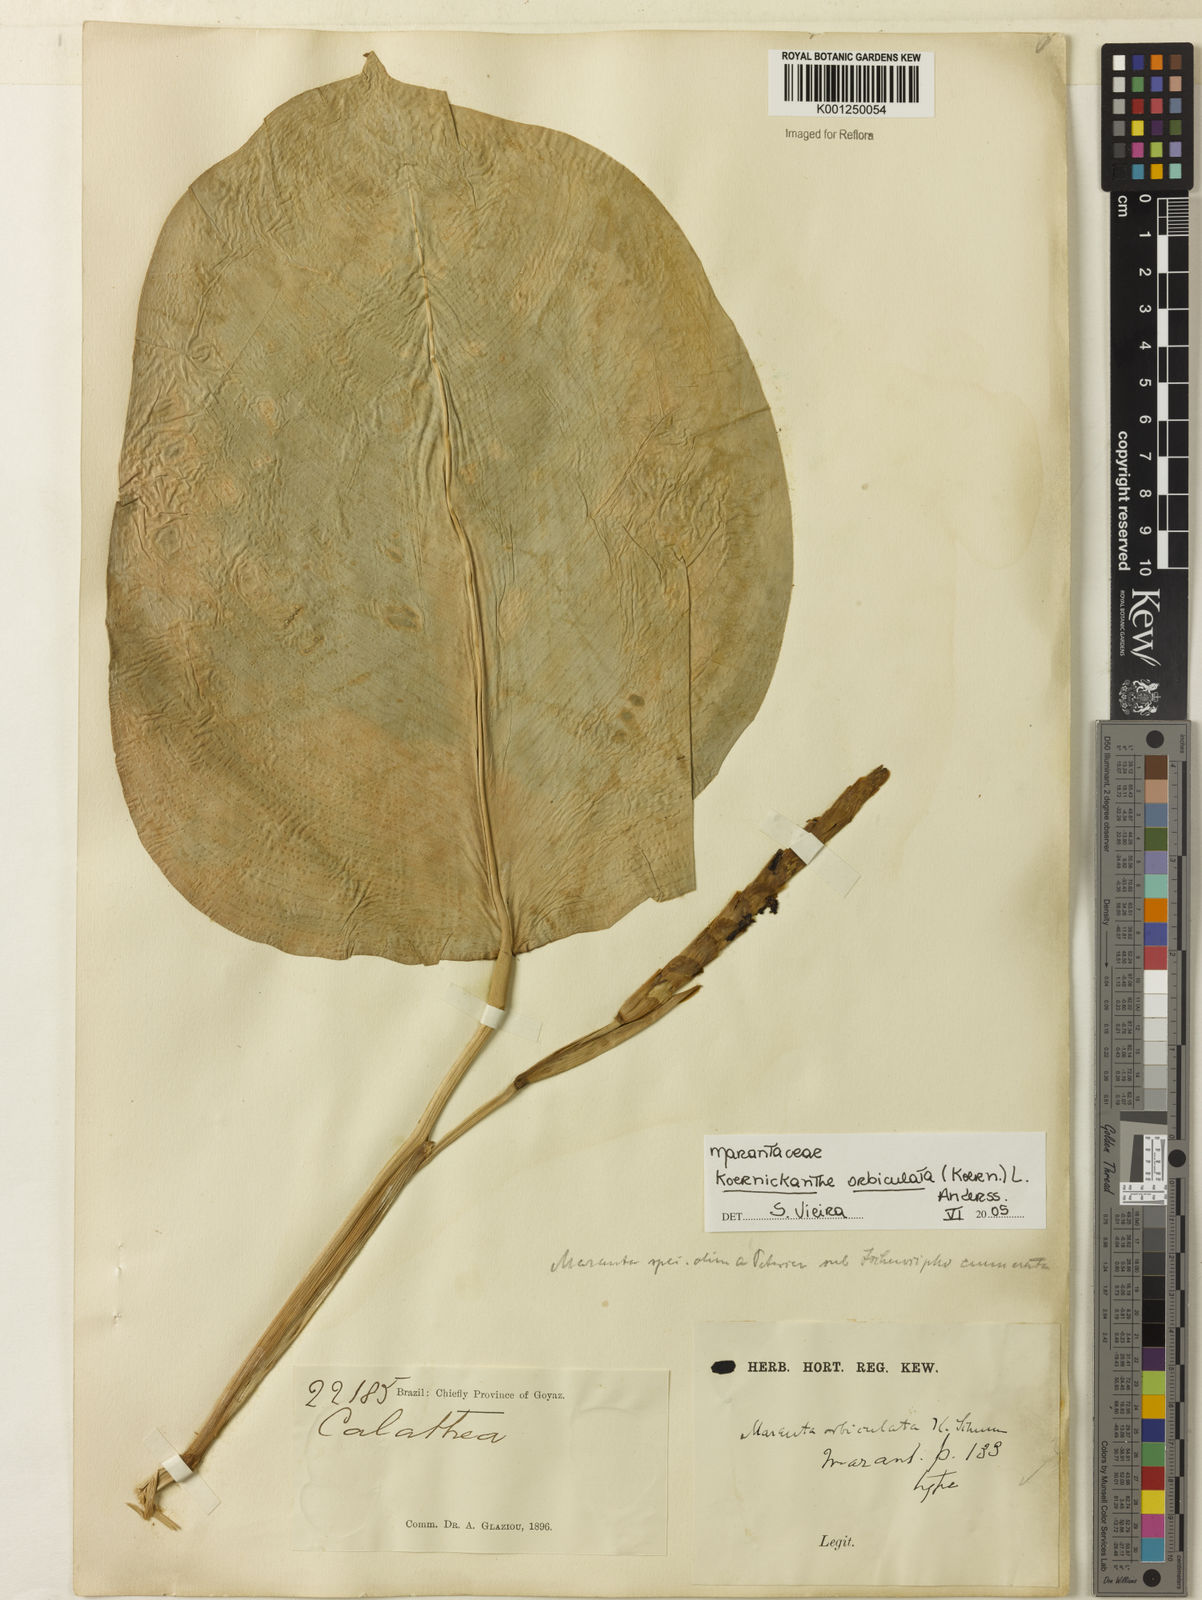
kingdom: Plantae
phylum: Tracheophyta
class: Liliopsida
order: Zingiberales
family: Marantaceae
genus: Koernickanthe
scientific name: Koernickanthe orbiculata
